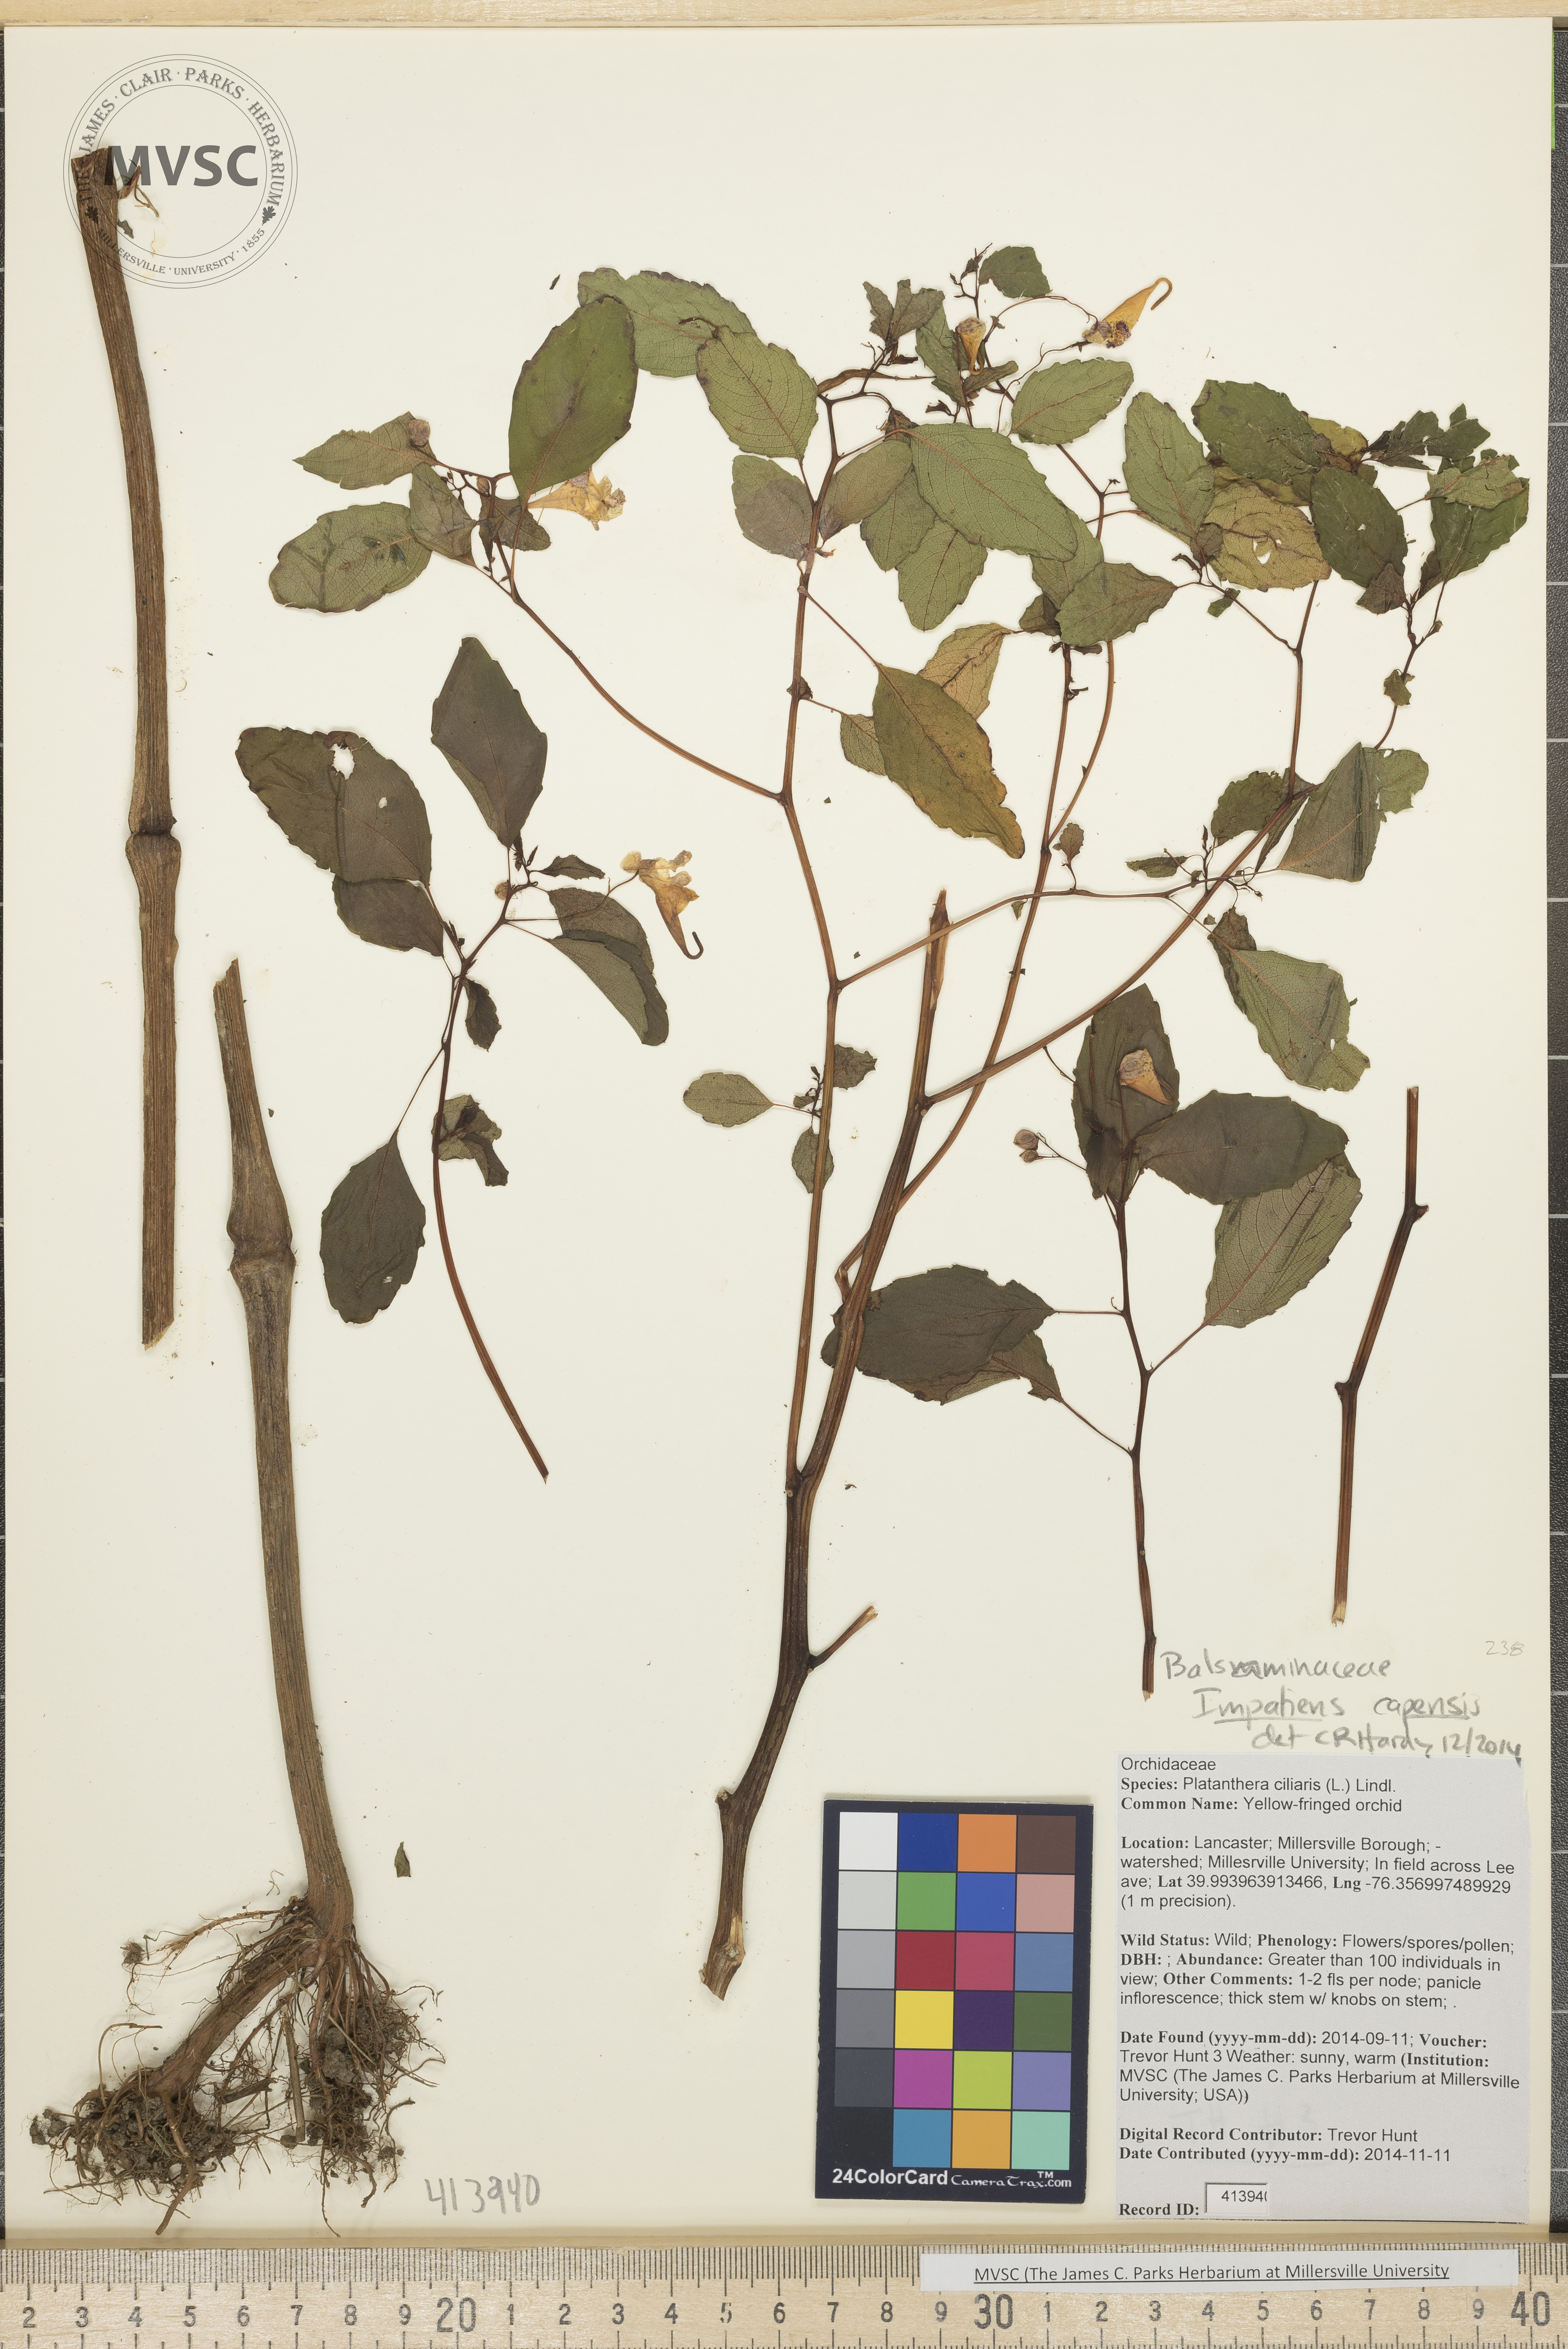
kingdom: Plantae
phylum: Tracheophyta
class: Magnoliopsida
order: Ericales
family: Balsaminaceae
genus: Impatiens
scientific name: Impatiens capensis
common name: Orange touch-me-not
